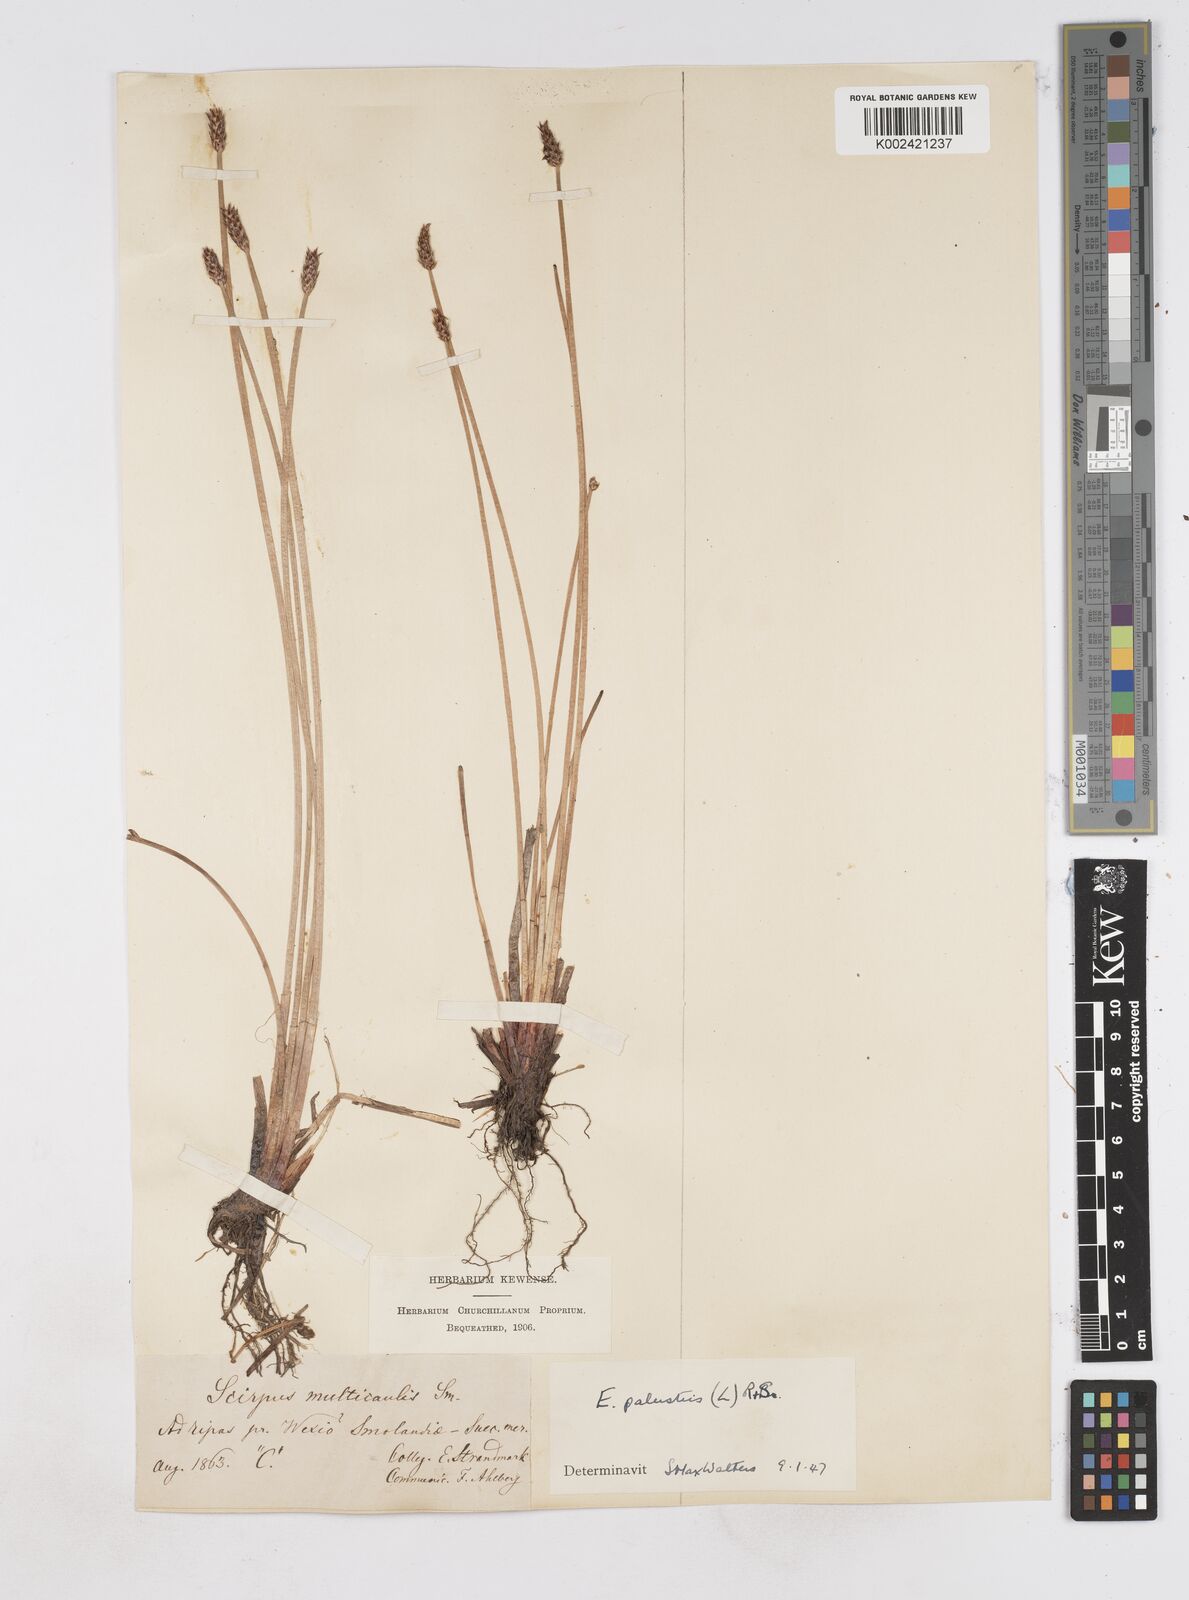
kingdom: Plantae
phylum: Tracheophyta
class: Liliopsida
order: Poales
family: Cyperaceae
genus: Eleocharis
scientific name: Eleocharis palustris
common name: Common spike-rush
